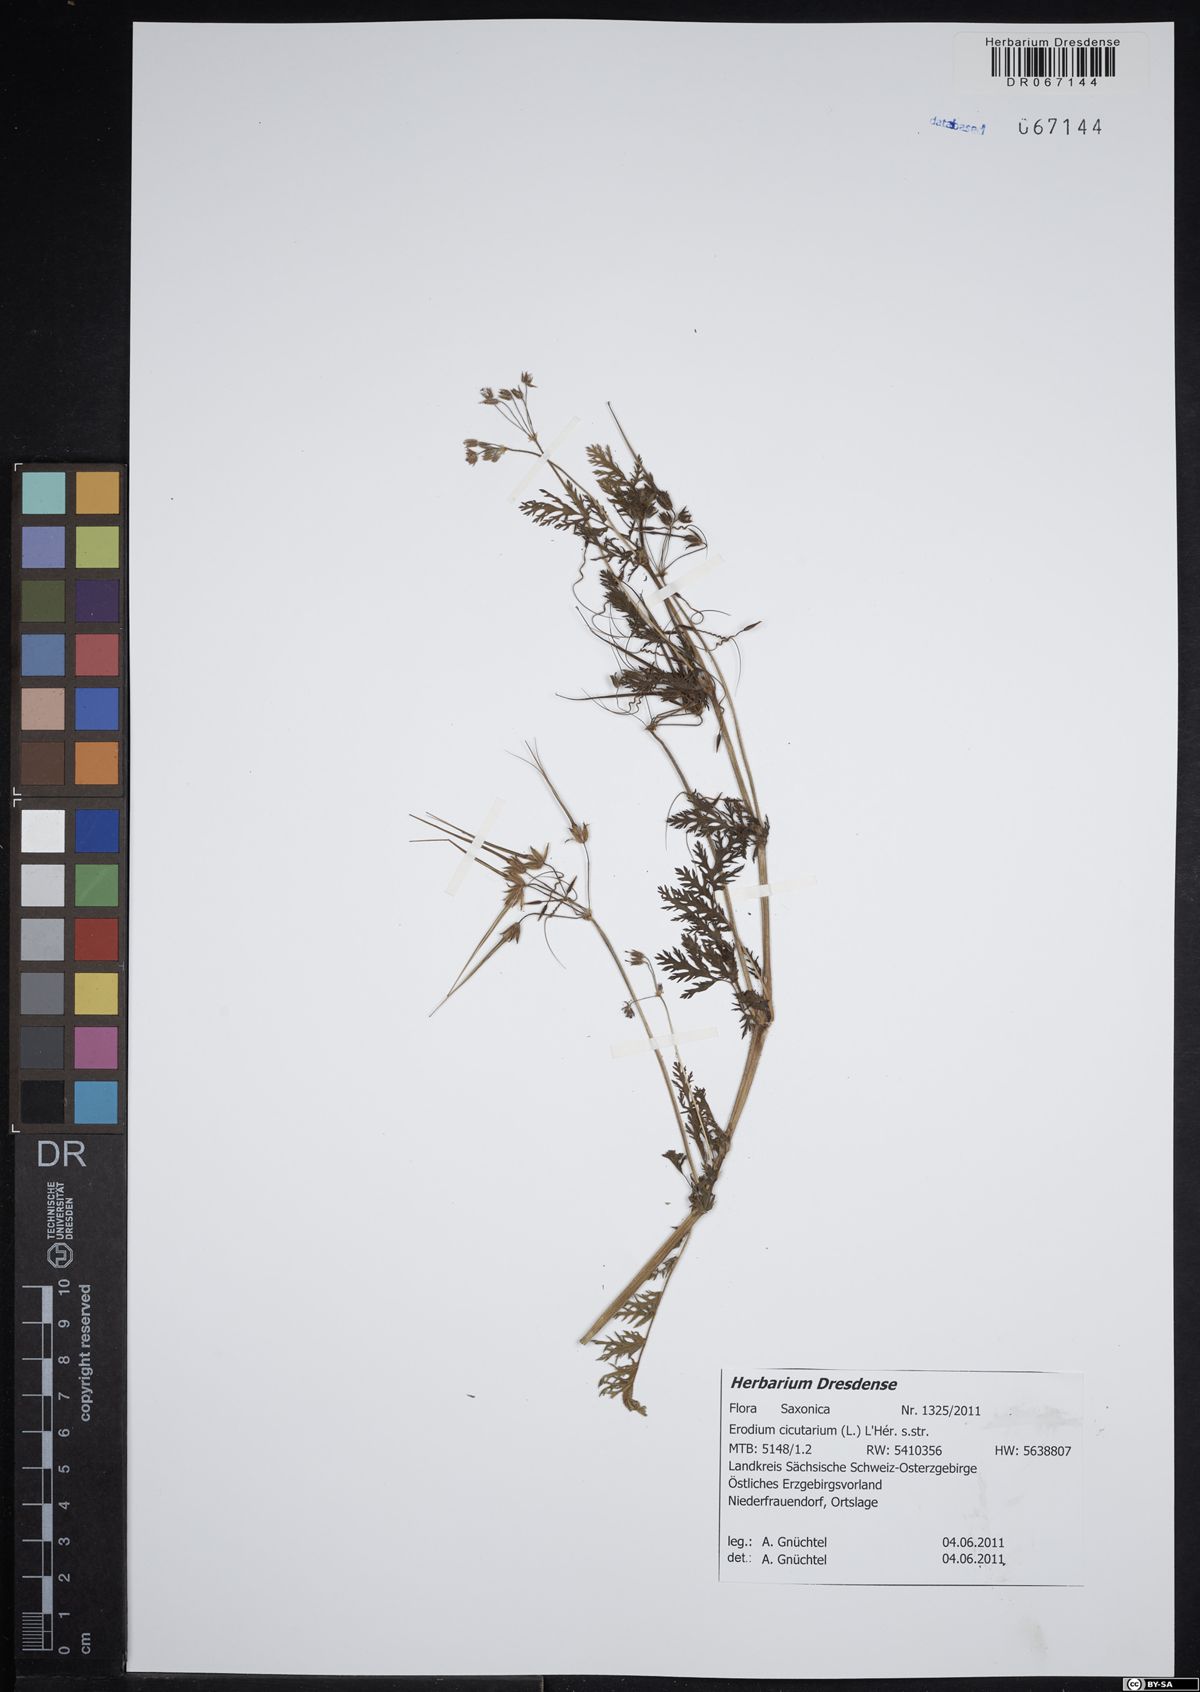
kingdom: Plantae
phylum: Tracheophyta
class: Magnoliopsida
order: Geraniales
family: Geraniaceae
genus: Erodium
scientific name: Erodium cicutarium
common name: Common stork's-bill
